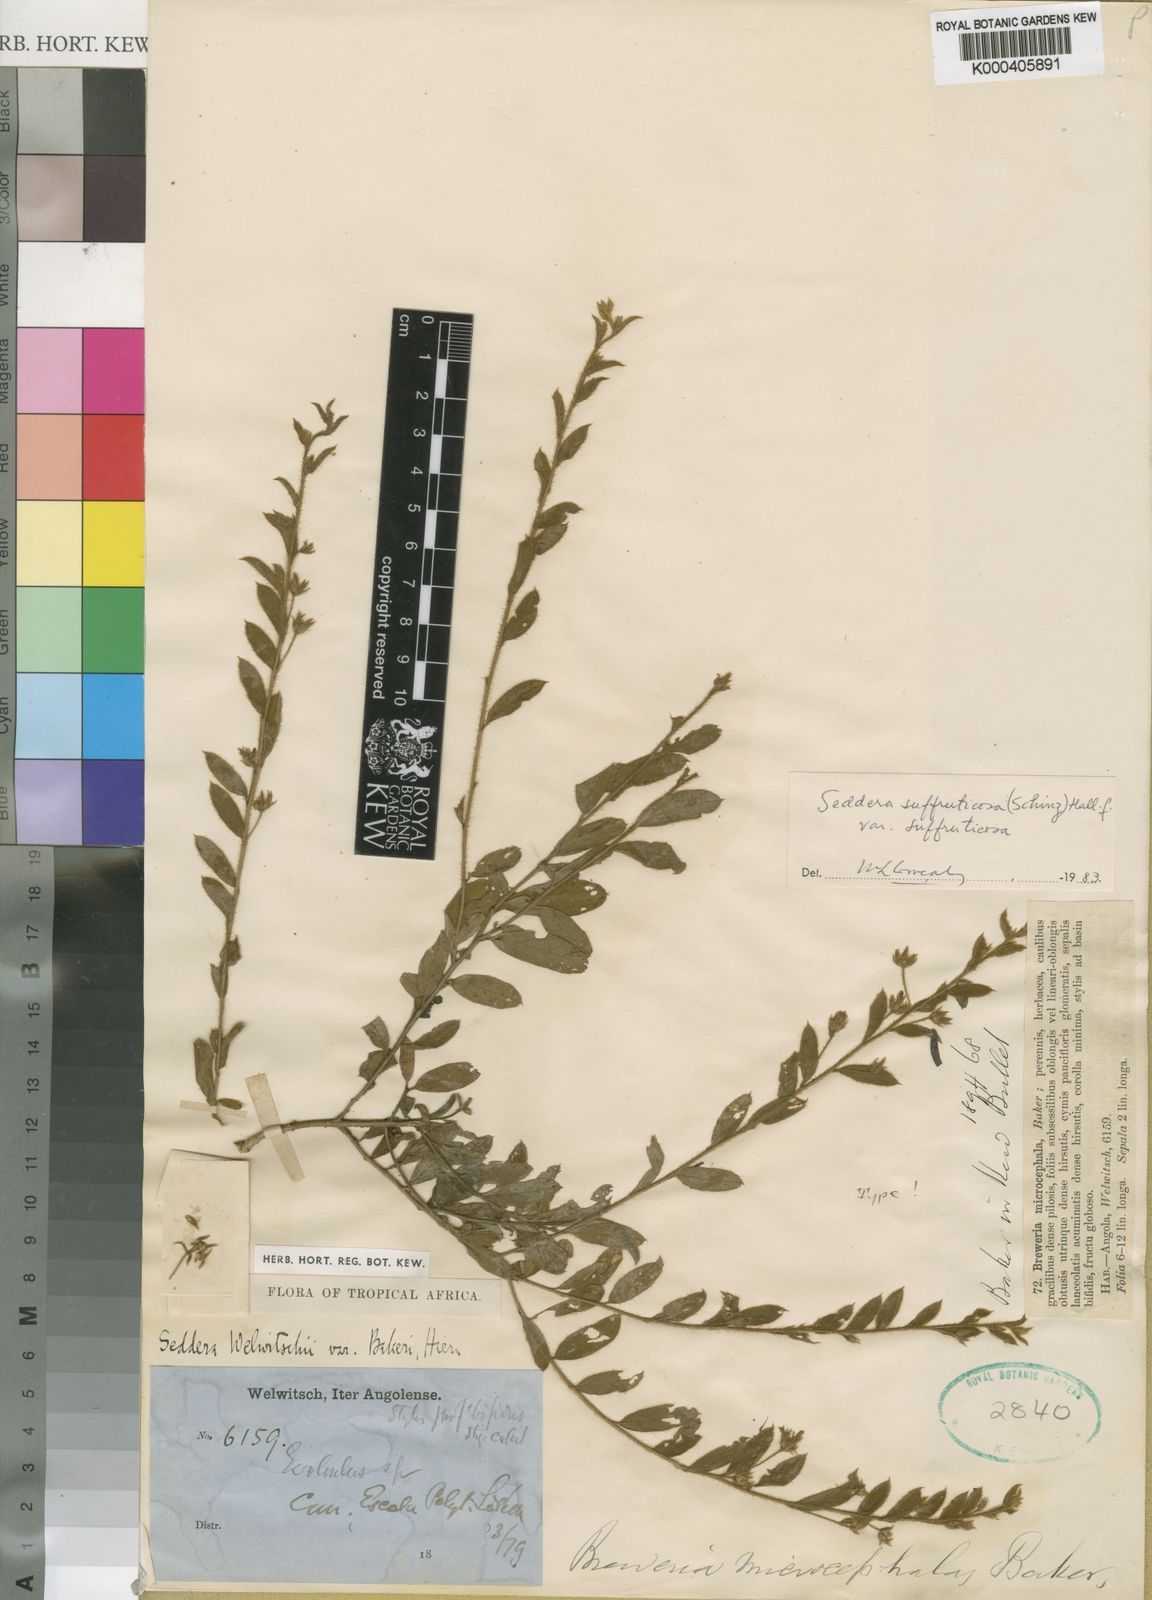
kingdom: Plantae
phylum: Tracheophyta
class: Magnoliopsida
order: Solanales
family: Convolvulaceae
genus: Seddera
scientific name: Seddera suffruticosa
